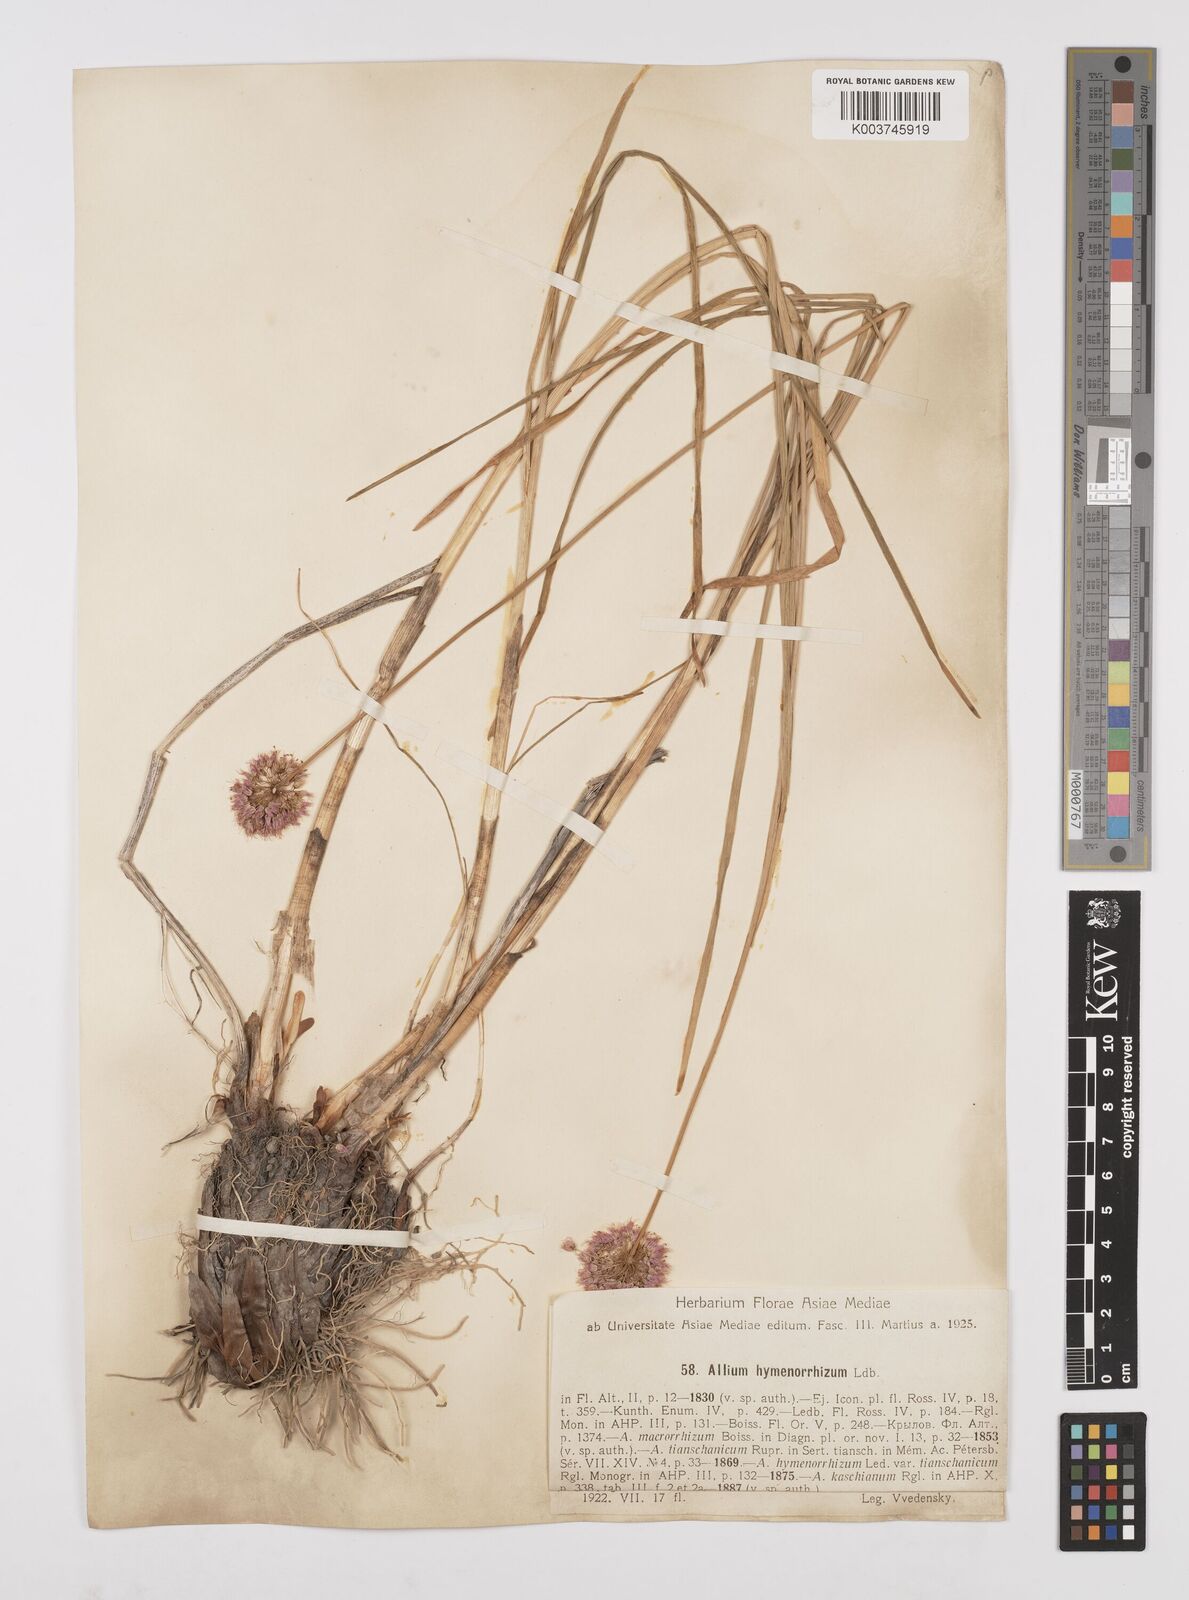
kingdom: Plantae
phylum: Tracheophyta
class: Liliopsida
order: Asparagales
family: Amaryllidaceae
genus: Allium
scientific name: Allium hymenorhizum
